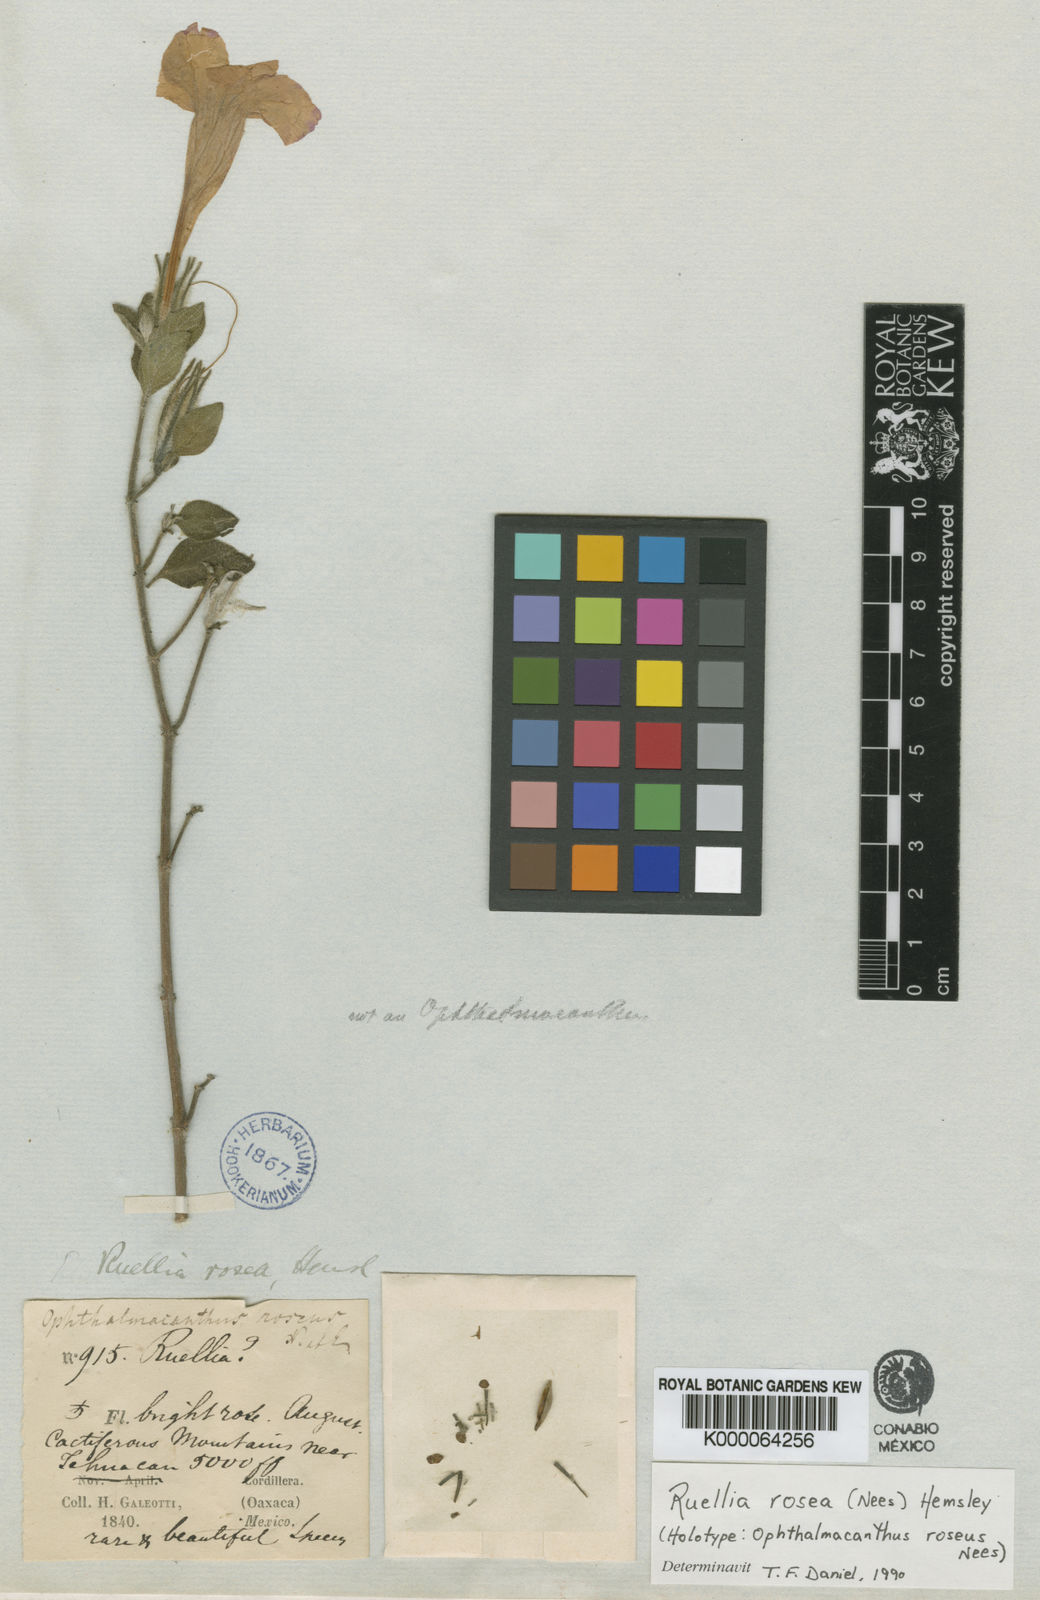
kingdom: Plantae
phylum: Tracheophyta
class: Magnoliopsida
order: Lamiales
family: Acanthaceae
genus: Ruellia
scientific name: Ruellia hirsutoglandulosa
